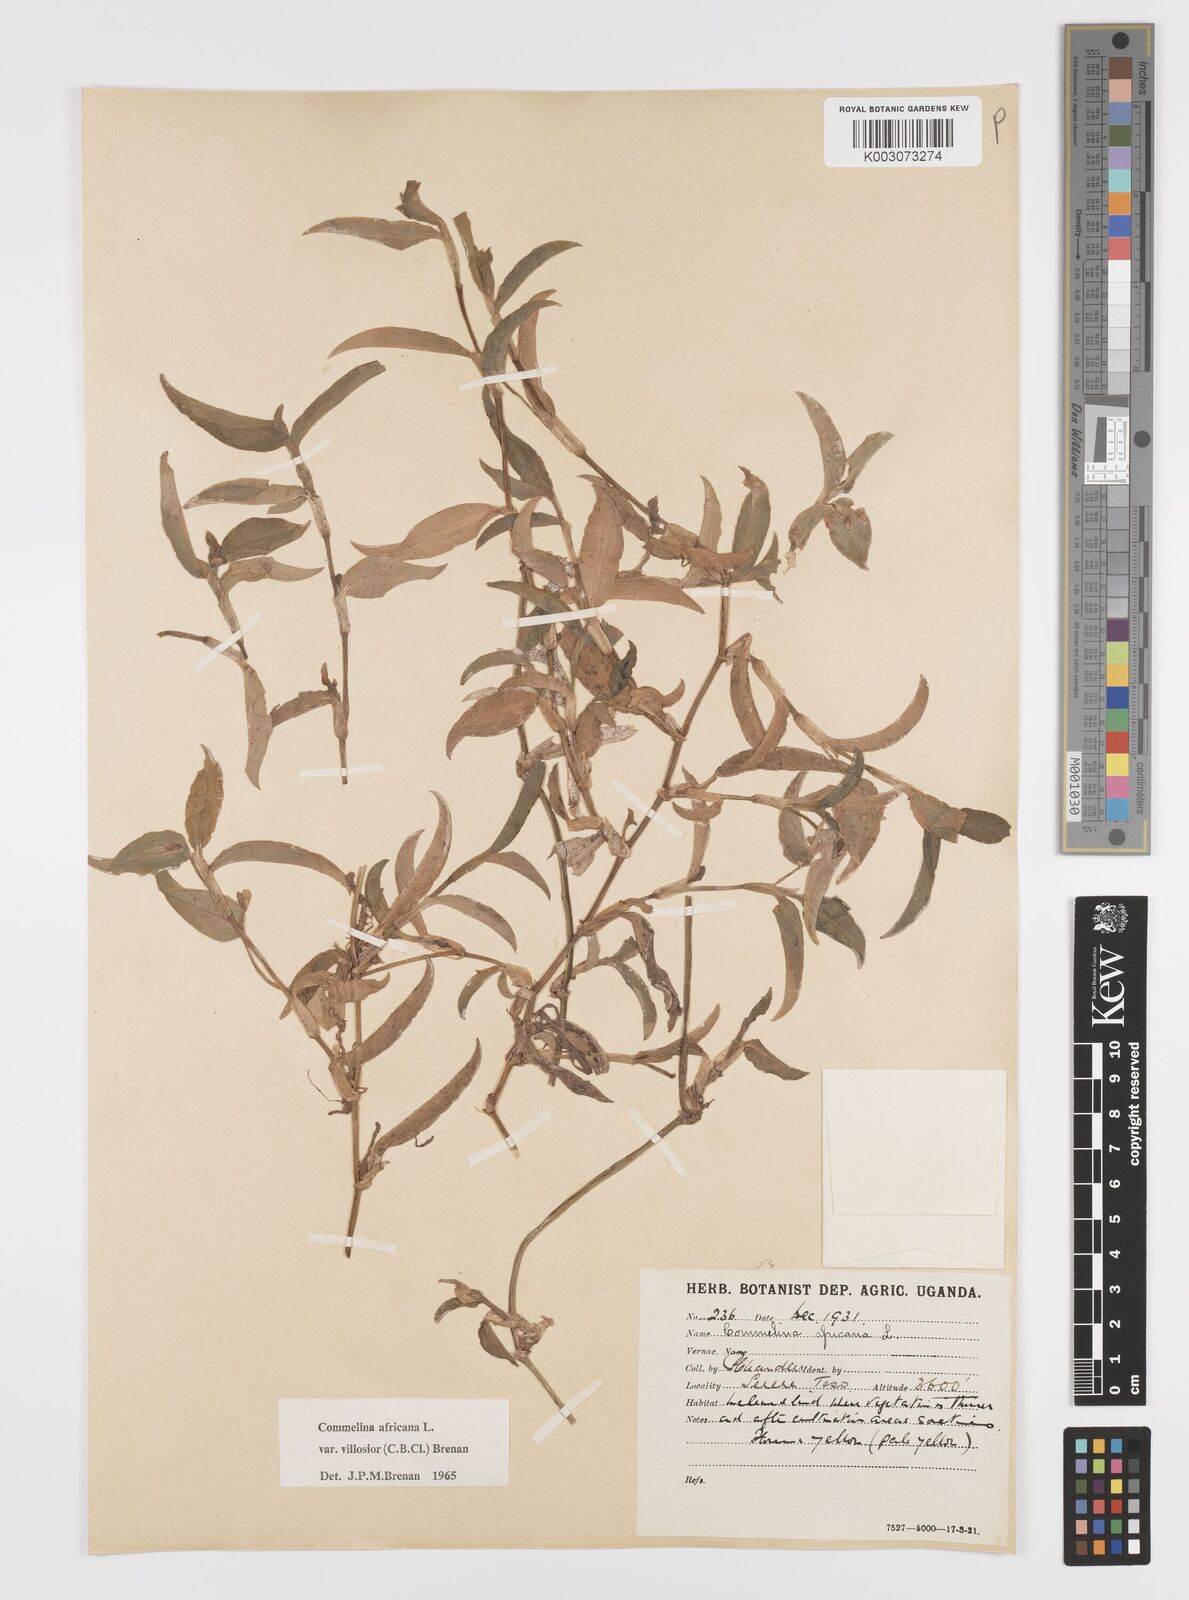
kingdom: Plantae
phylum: Tracheophyta
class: Liliopsida
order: Commelinales
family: Commelinaceae
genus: Commelina
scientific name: Commelina africana
